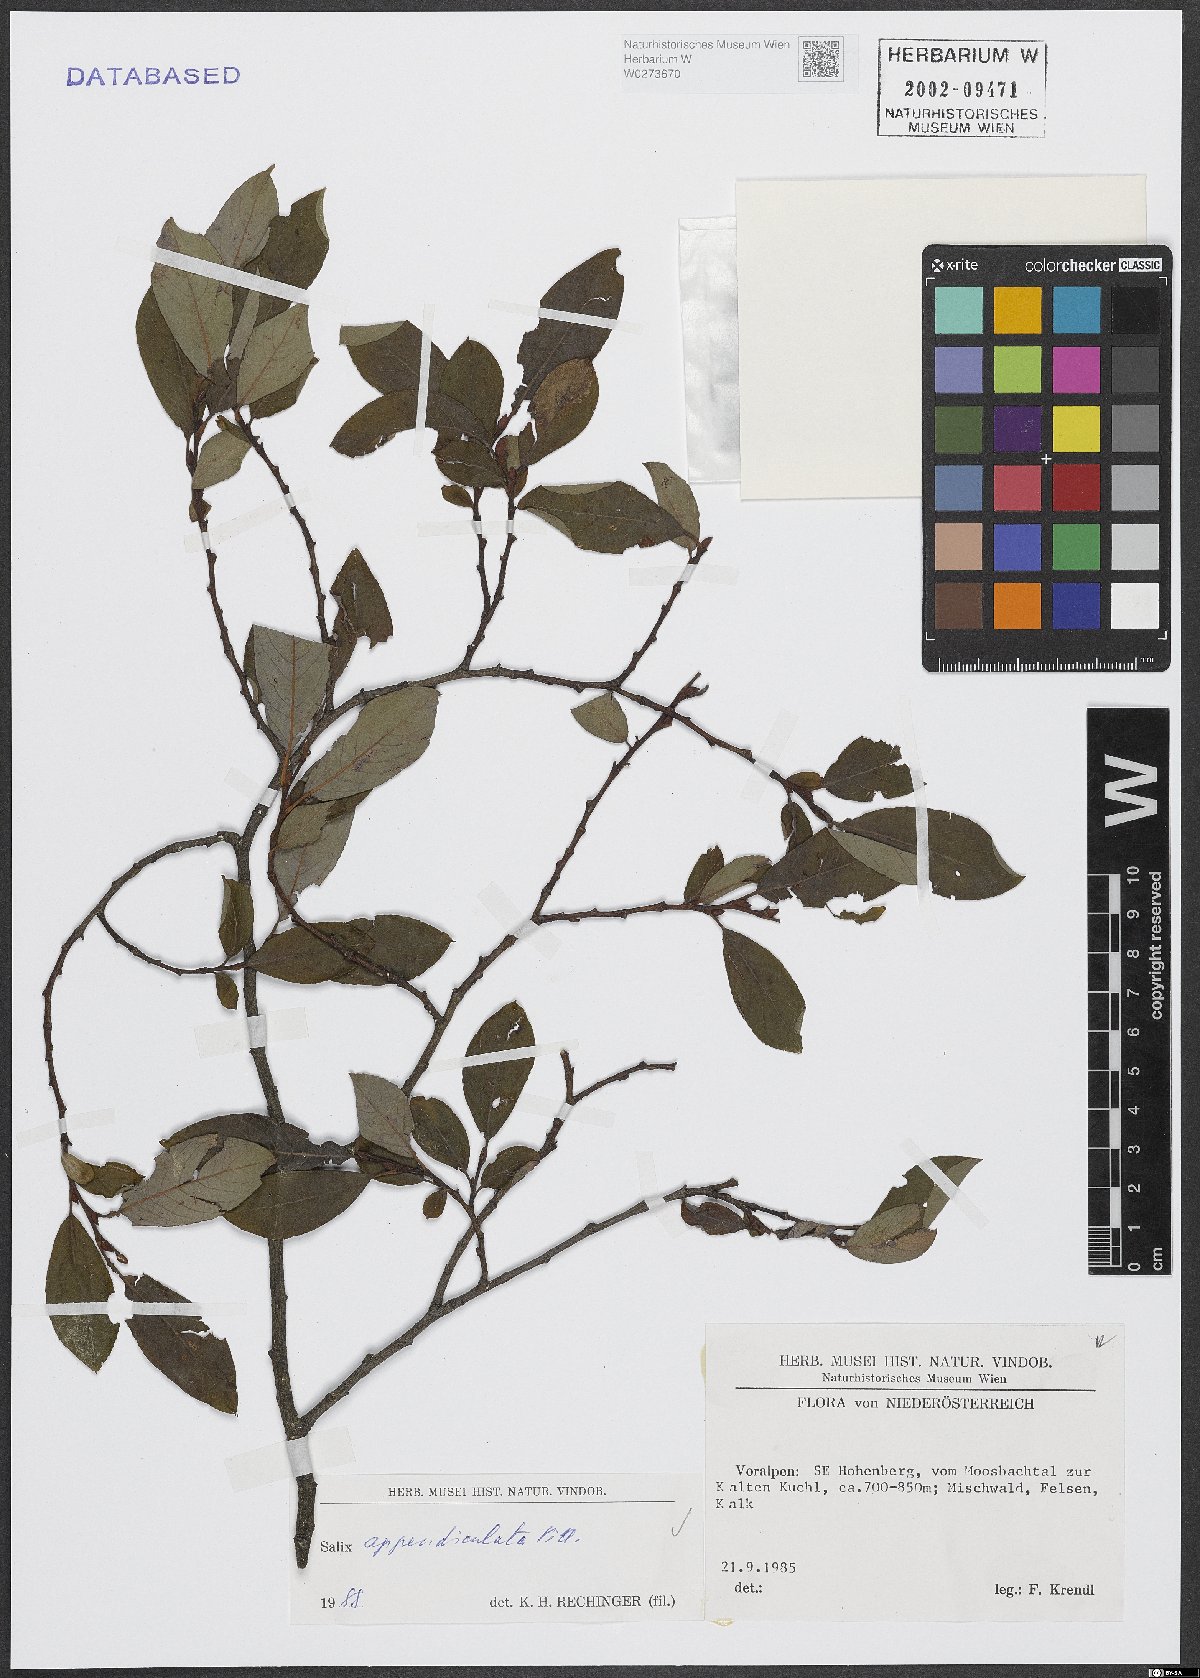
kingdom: Plantae
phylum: Tracheophyta
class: Magnoliopsida
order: Malpighiales
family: Salicaceae
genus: Salix
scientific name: Salix appendiculata
